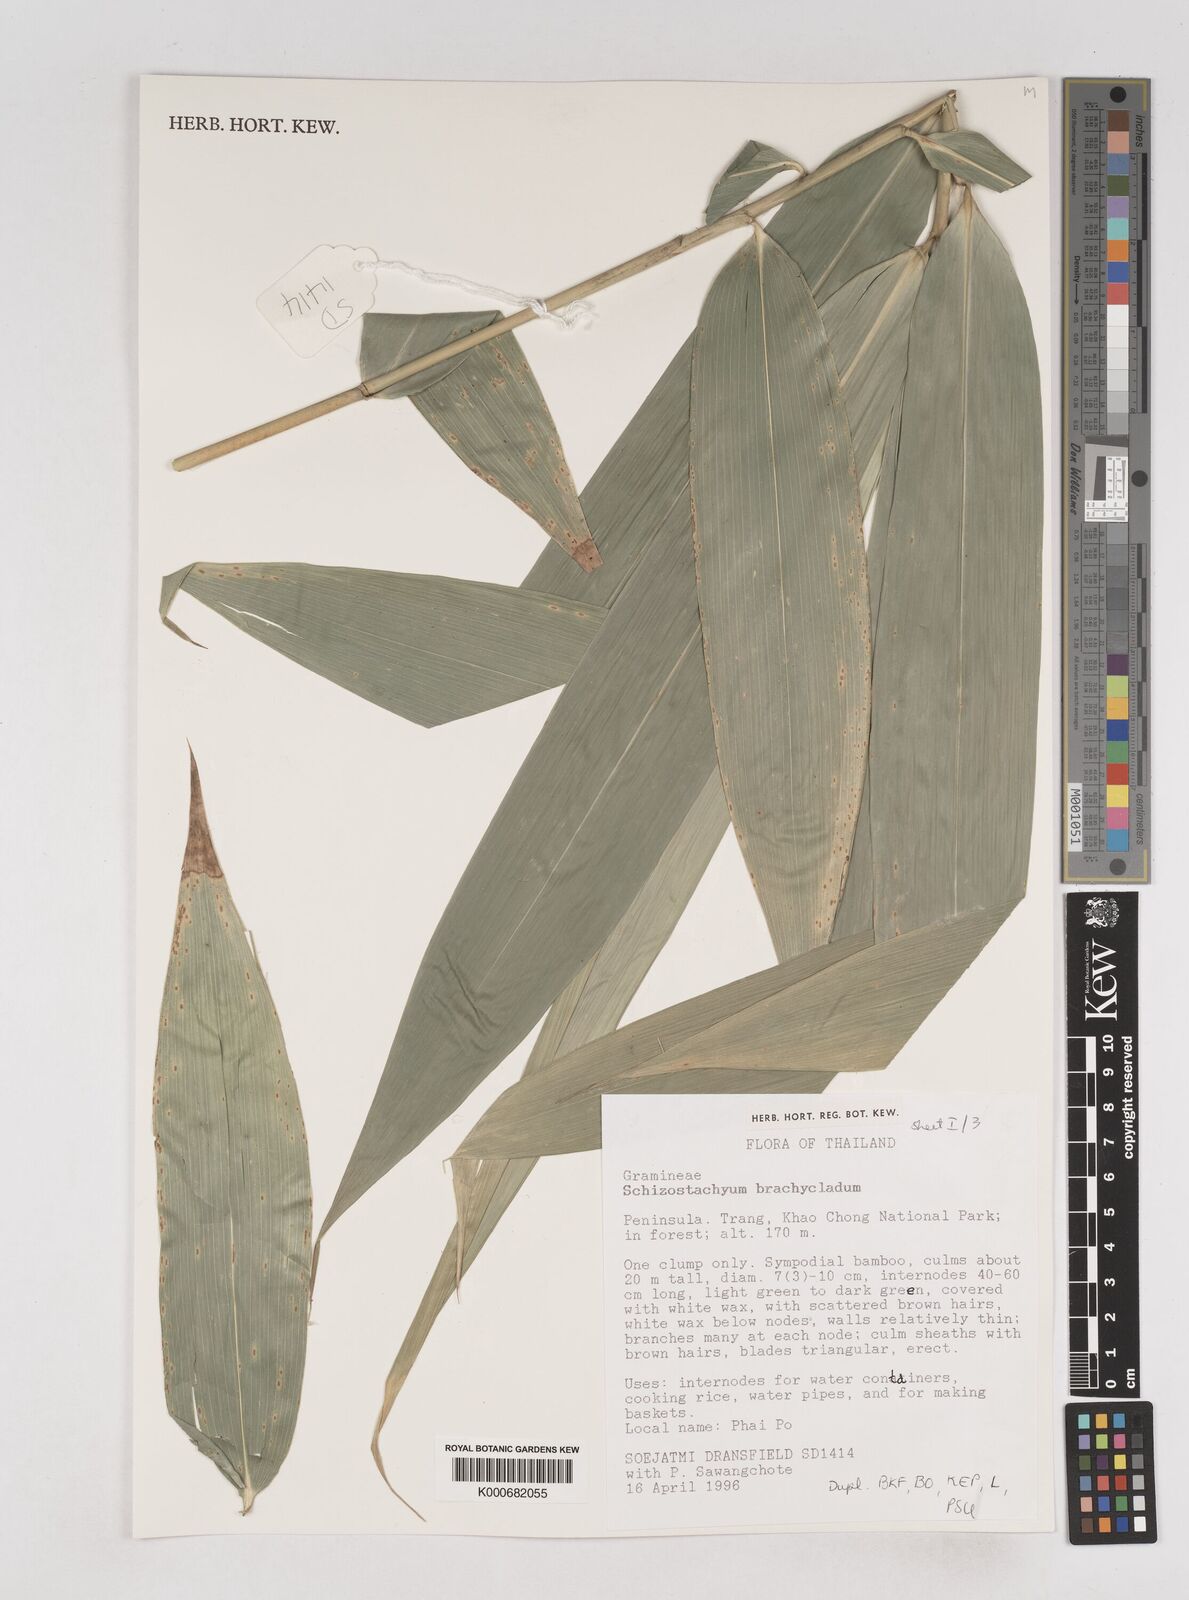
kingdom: Plantae
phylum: Tracheophyta
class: Liliopsida
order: Poales
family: Poaceae
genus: Schizostachyum
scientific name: Schizostachyum brachycladum
